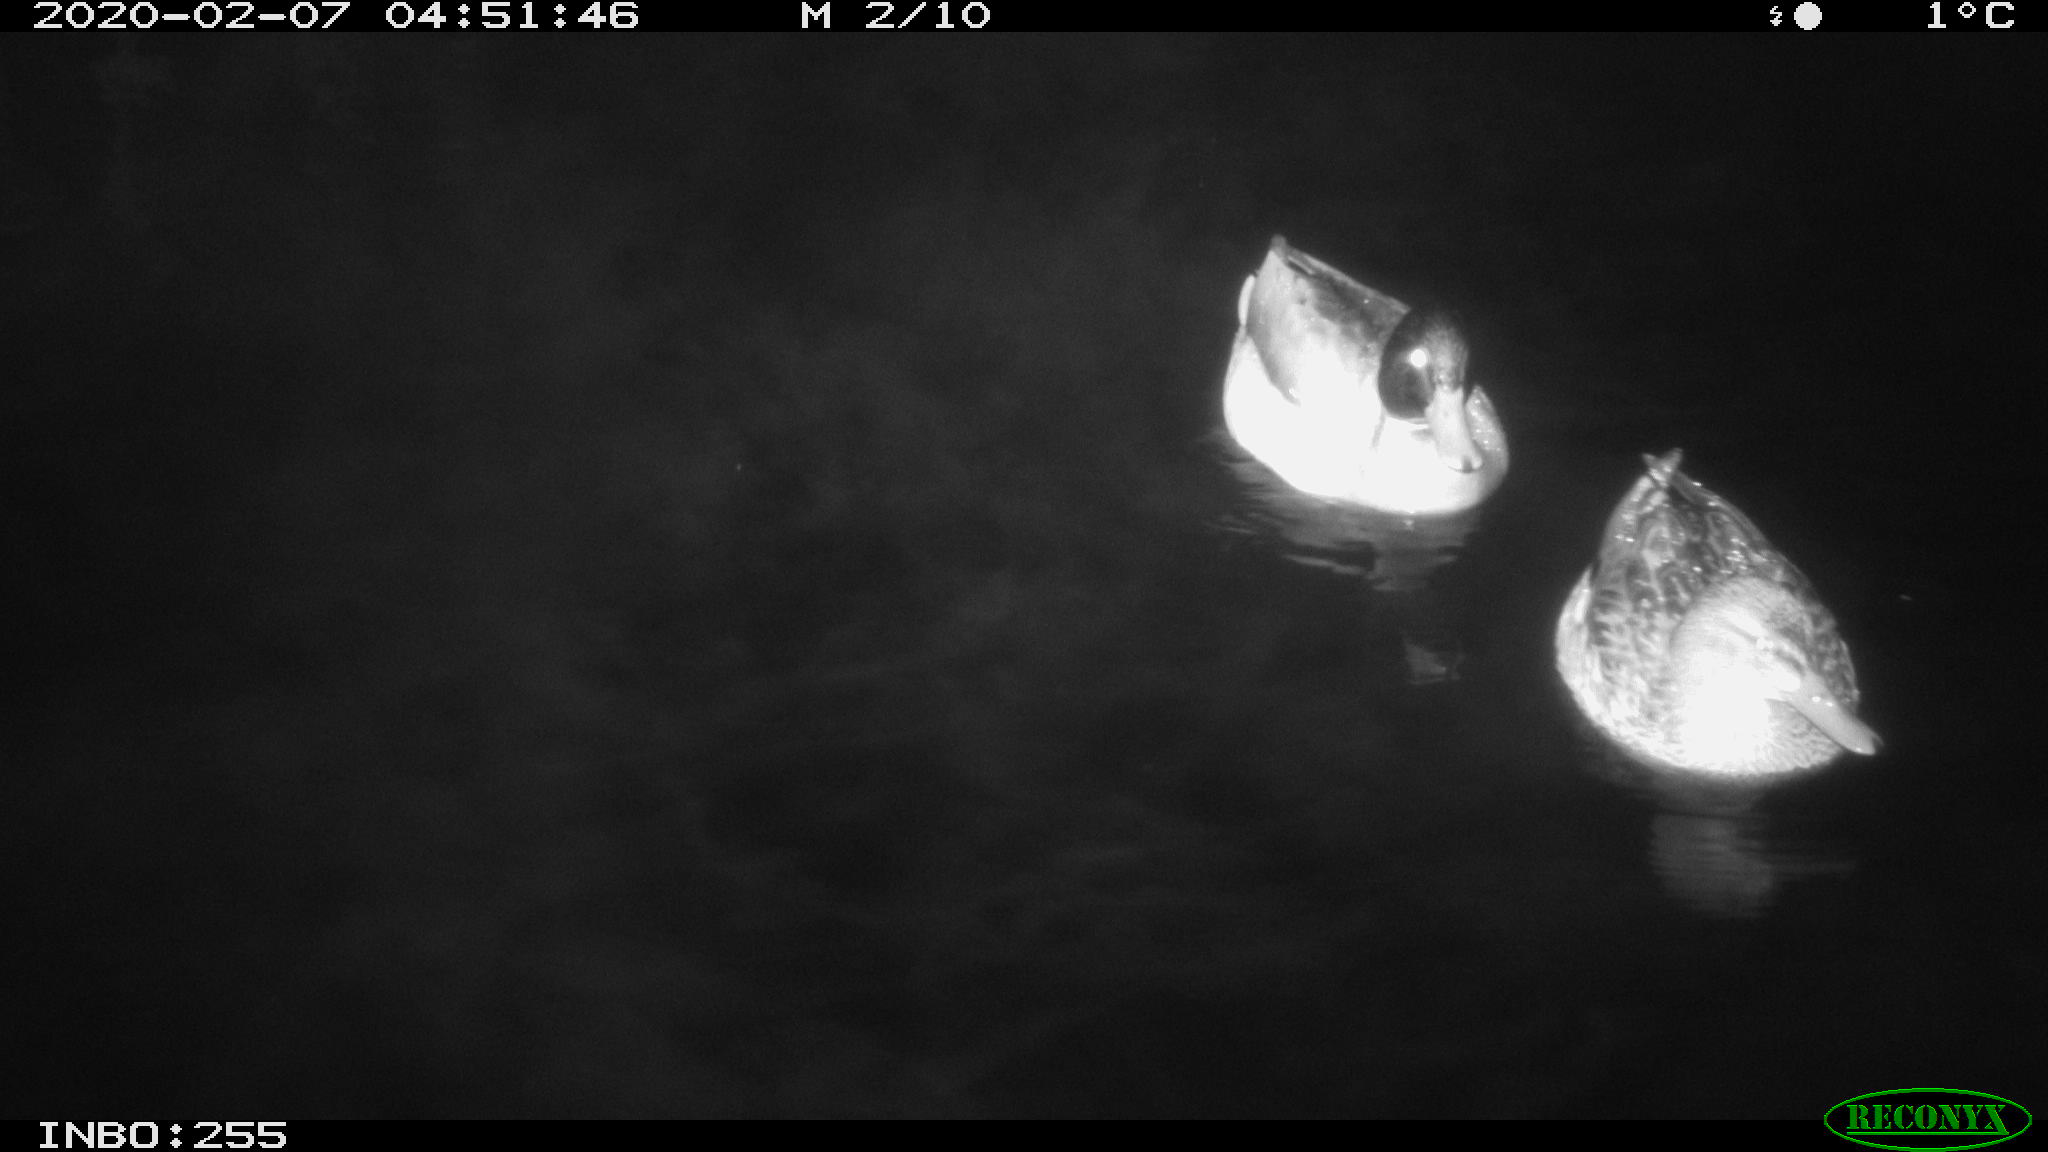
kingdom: Animalia
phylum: Chordata
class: Aves
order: Anseriformes
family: Anatidae
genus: Anas
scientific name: Anas platyrhynchos
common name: Mallard
